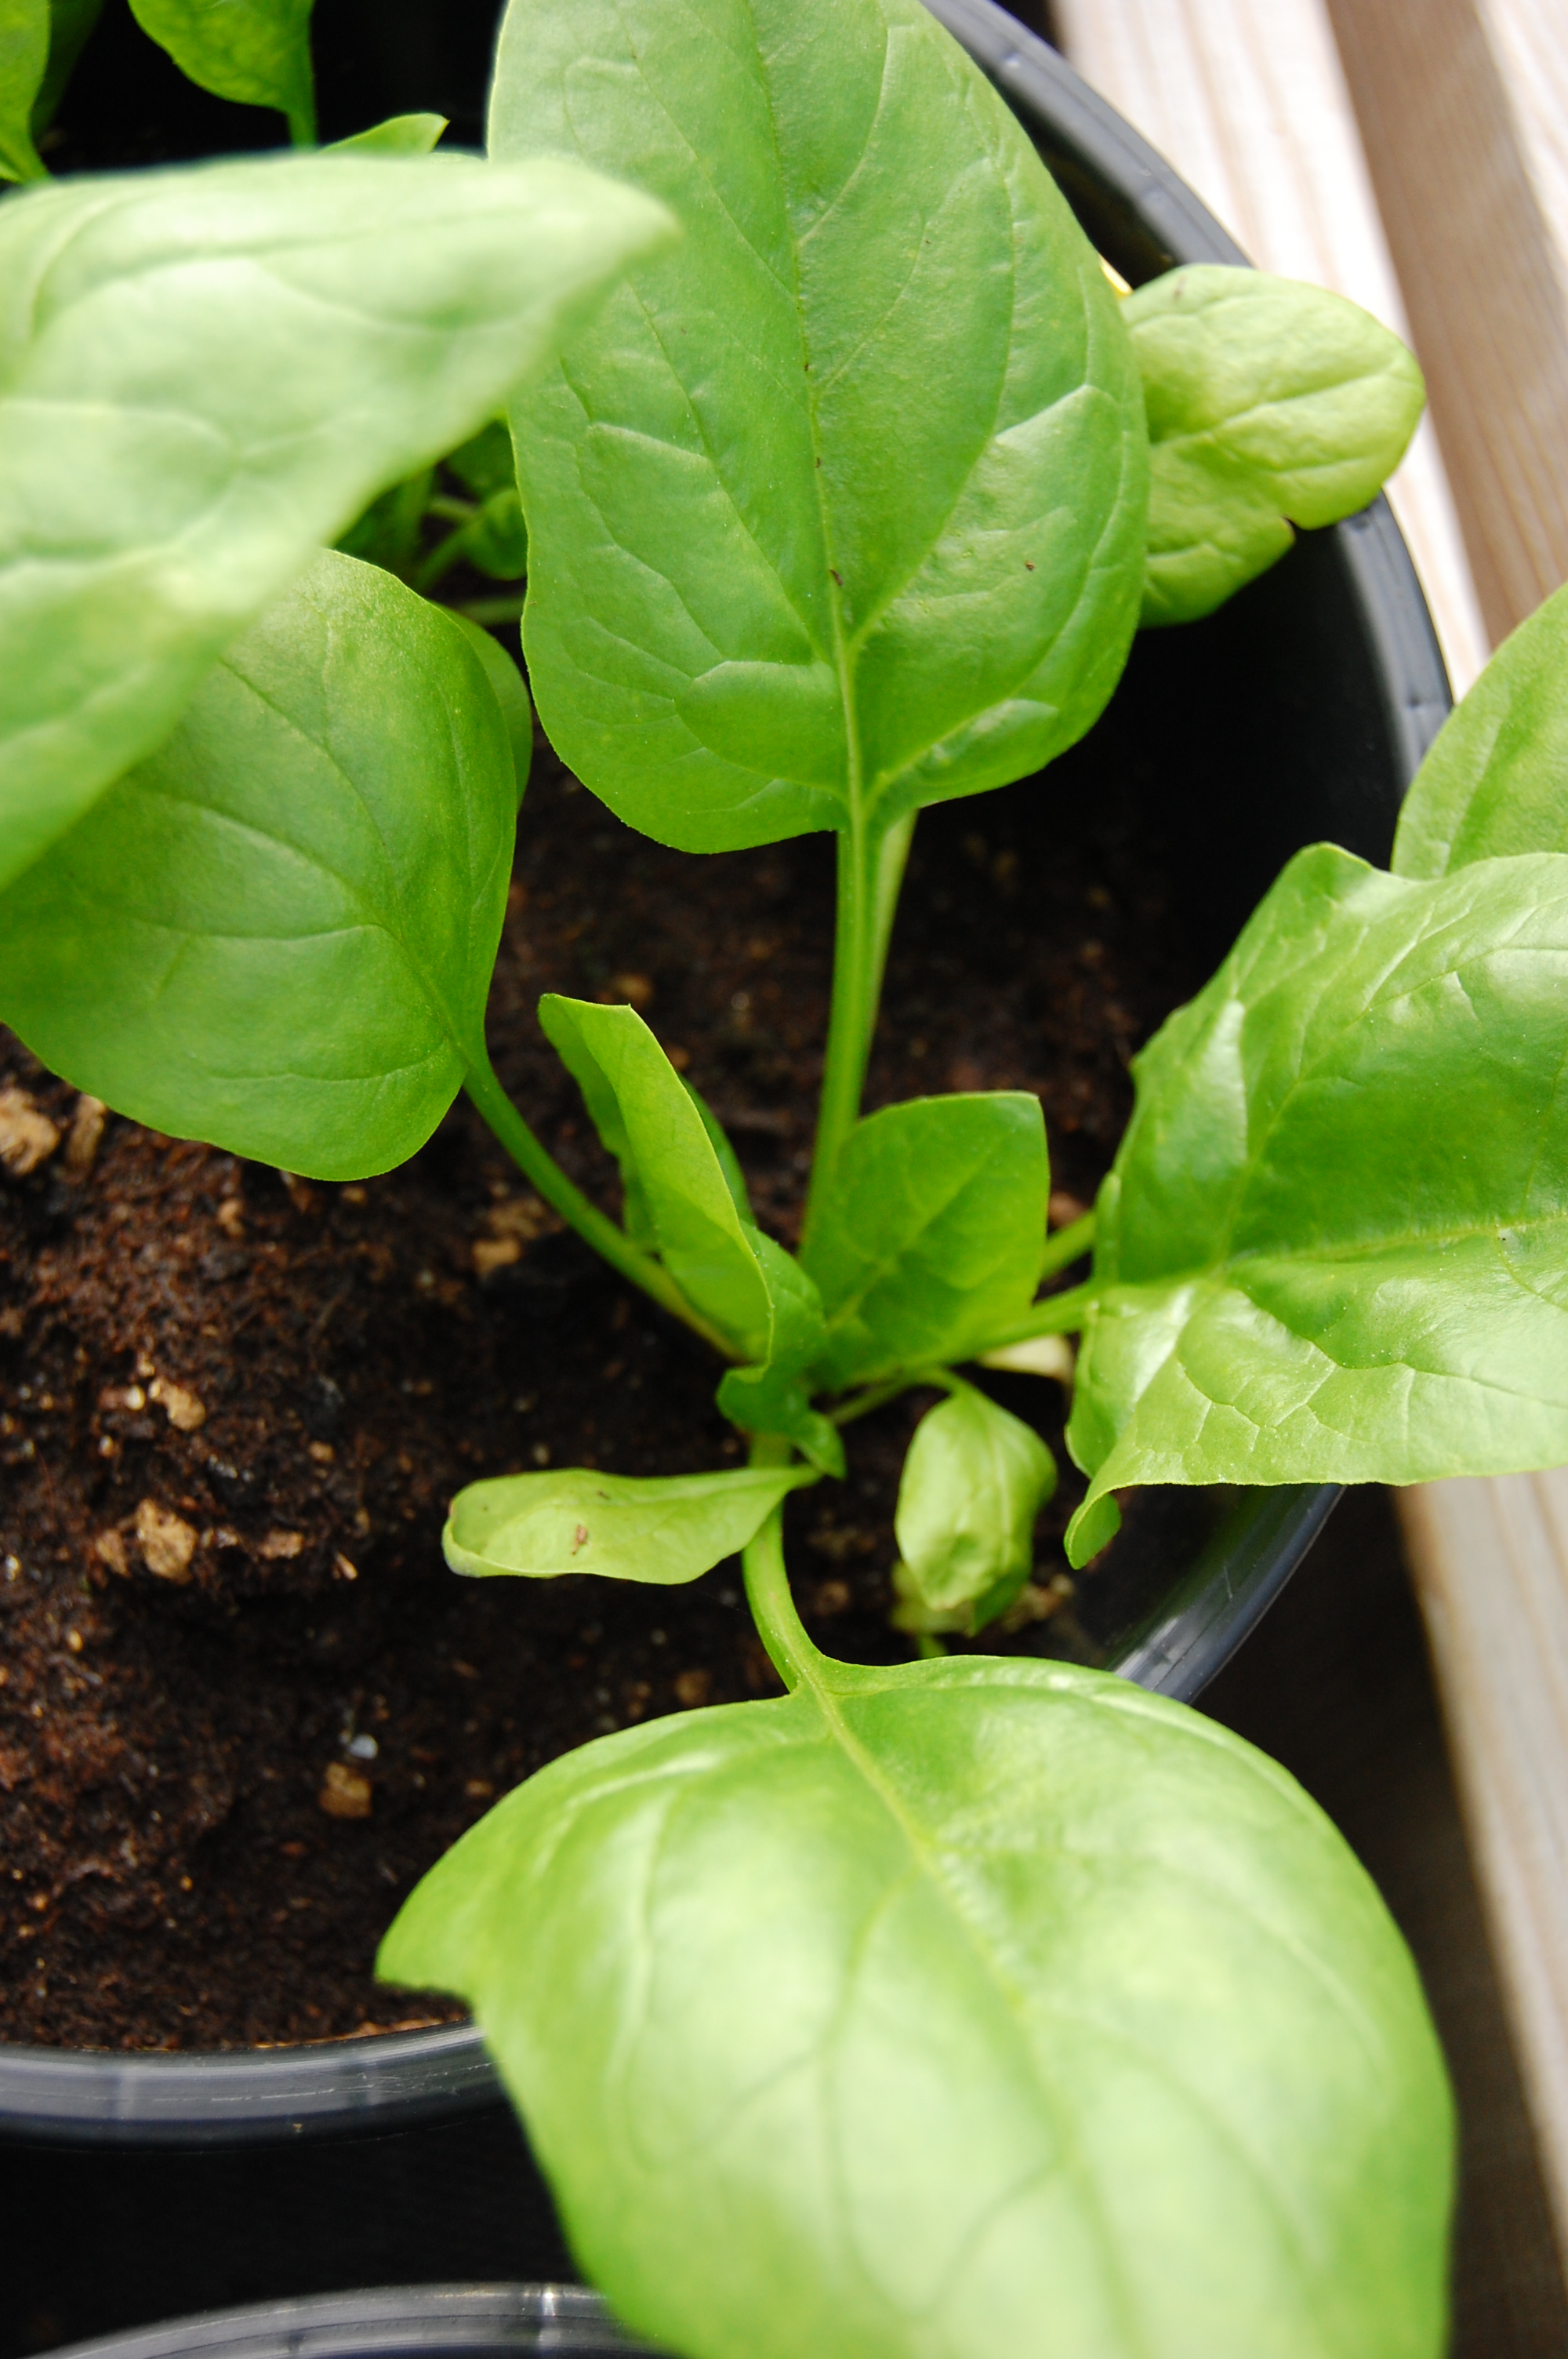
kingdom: Plantae
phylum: Tracheophyta
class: Magnoliopsida
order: Caryophyllales
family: Amaranthaceae
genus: Spinacia
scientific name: Spinacia oleracea
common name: Spinach
